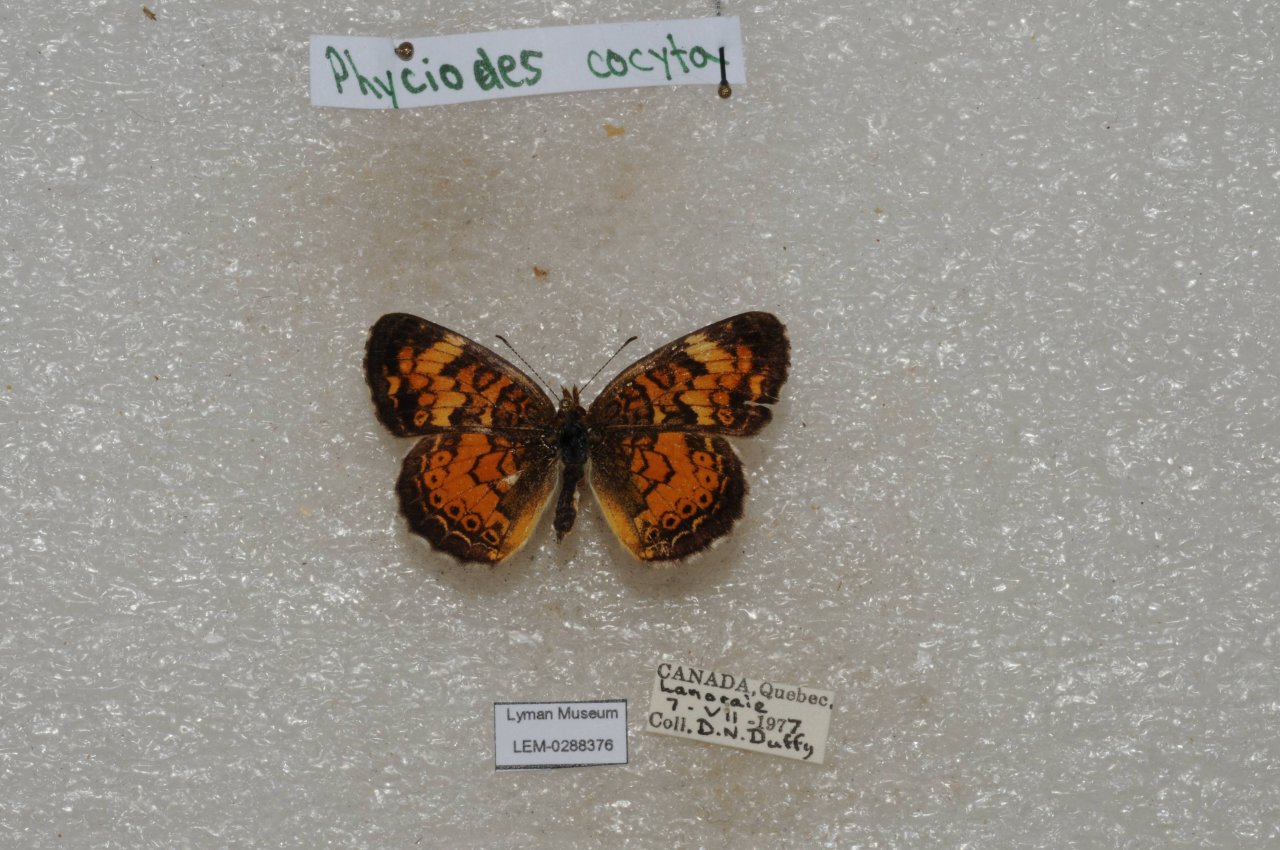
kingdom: Animalia
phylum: Arthropoda
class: Insecta
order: Lepidoptera
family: Nymphalidae
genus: Phyciodes
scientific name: Phyciodes tharos
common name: Northern Crescent
